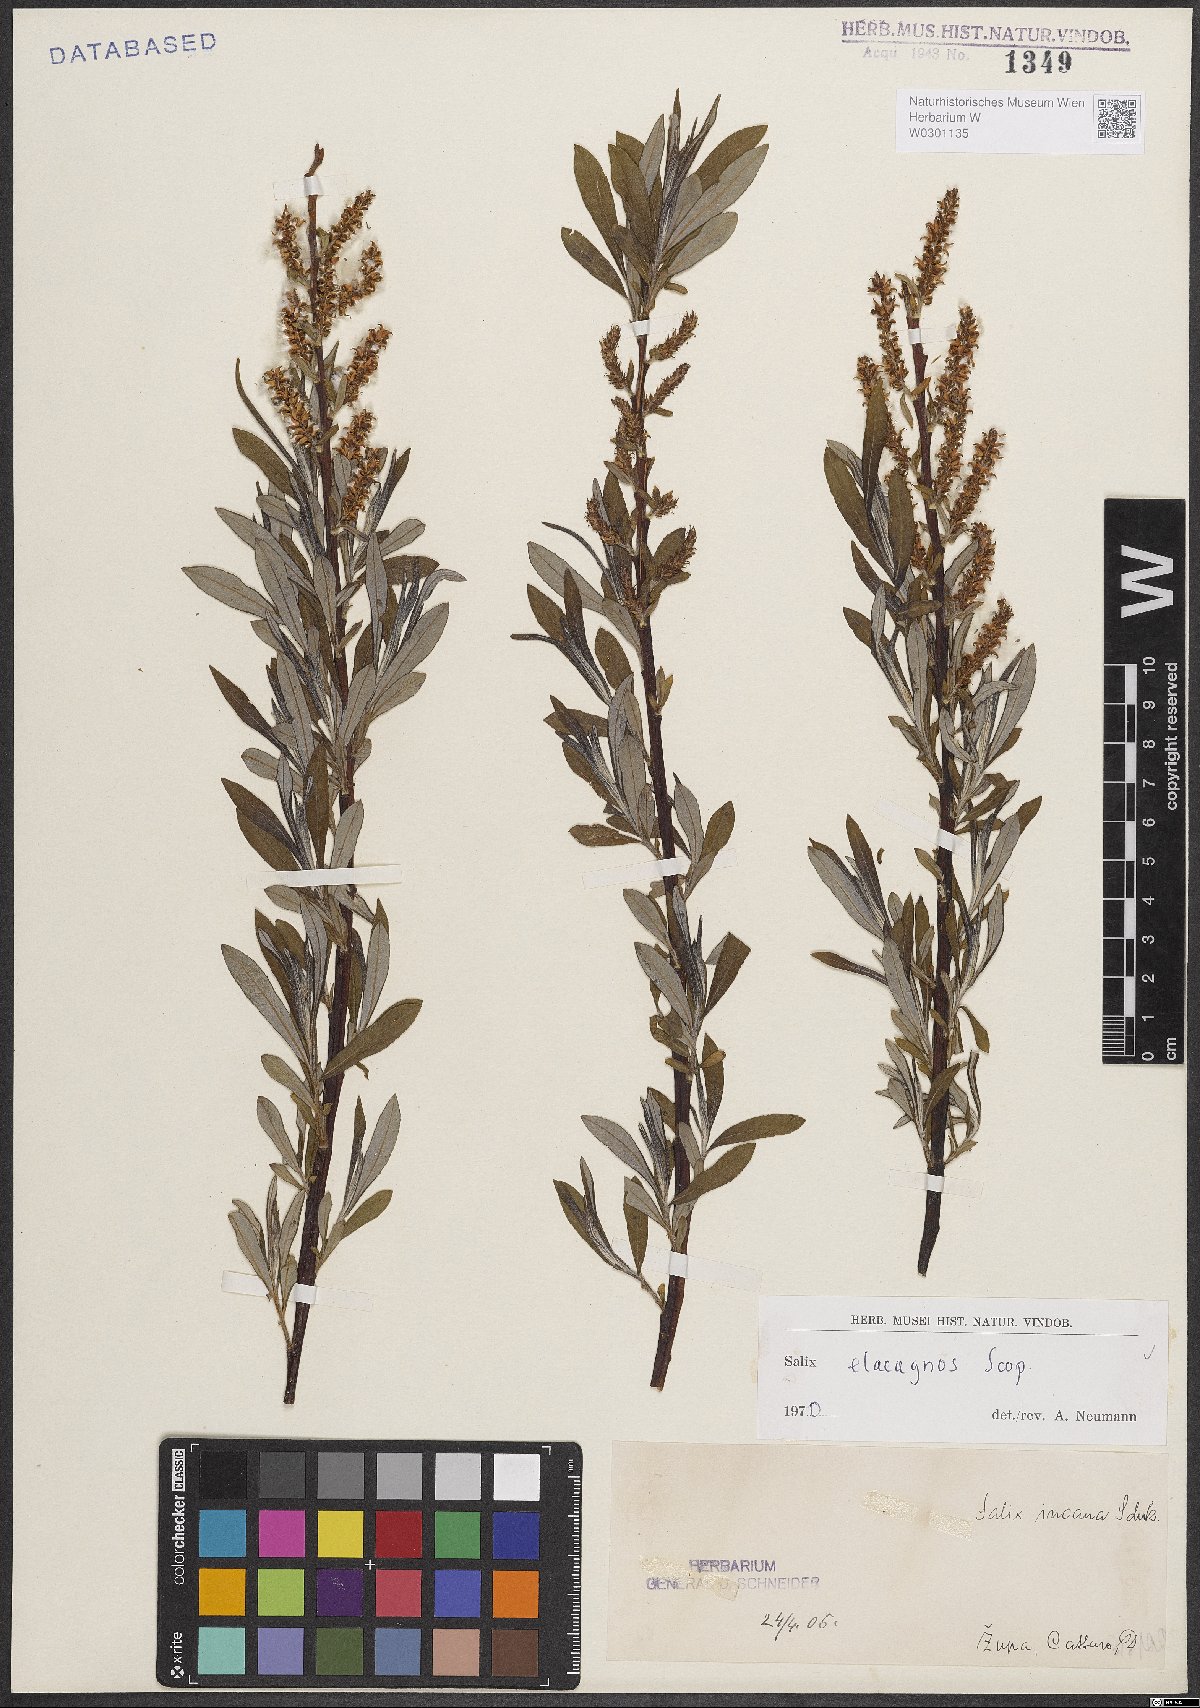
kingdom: Plantae
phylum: Tracheophyta
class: Magnoliopsida
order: Malpighiales
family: Salicaceae
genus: Salix
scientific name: Salix eleagnos
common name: Elaeagnus willow
